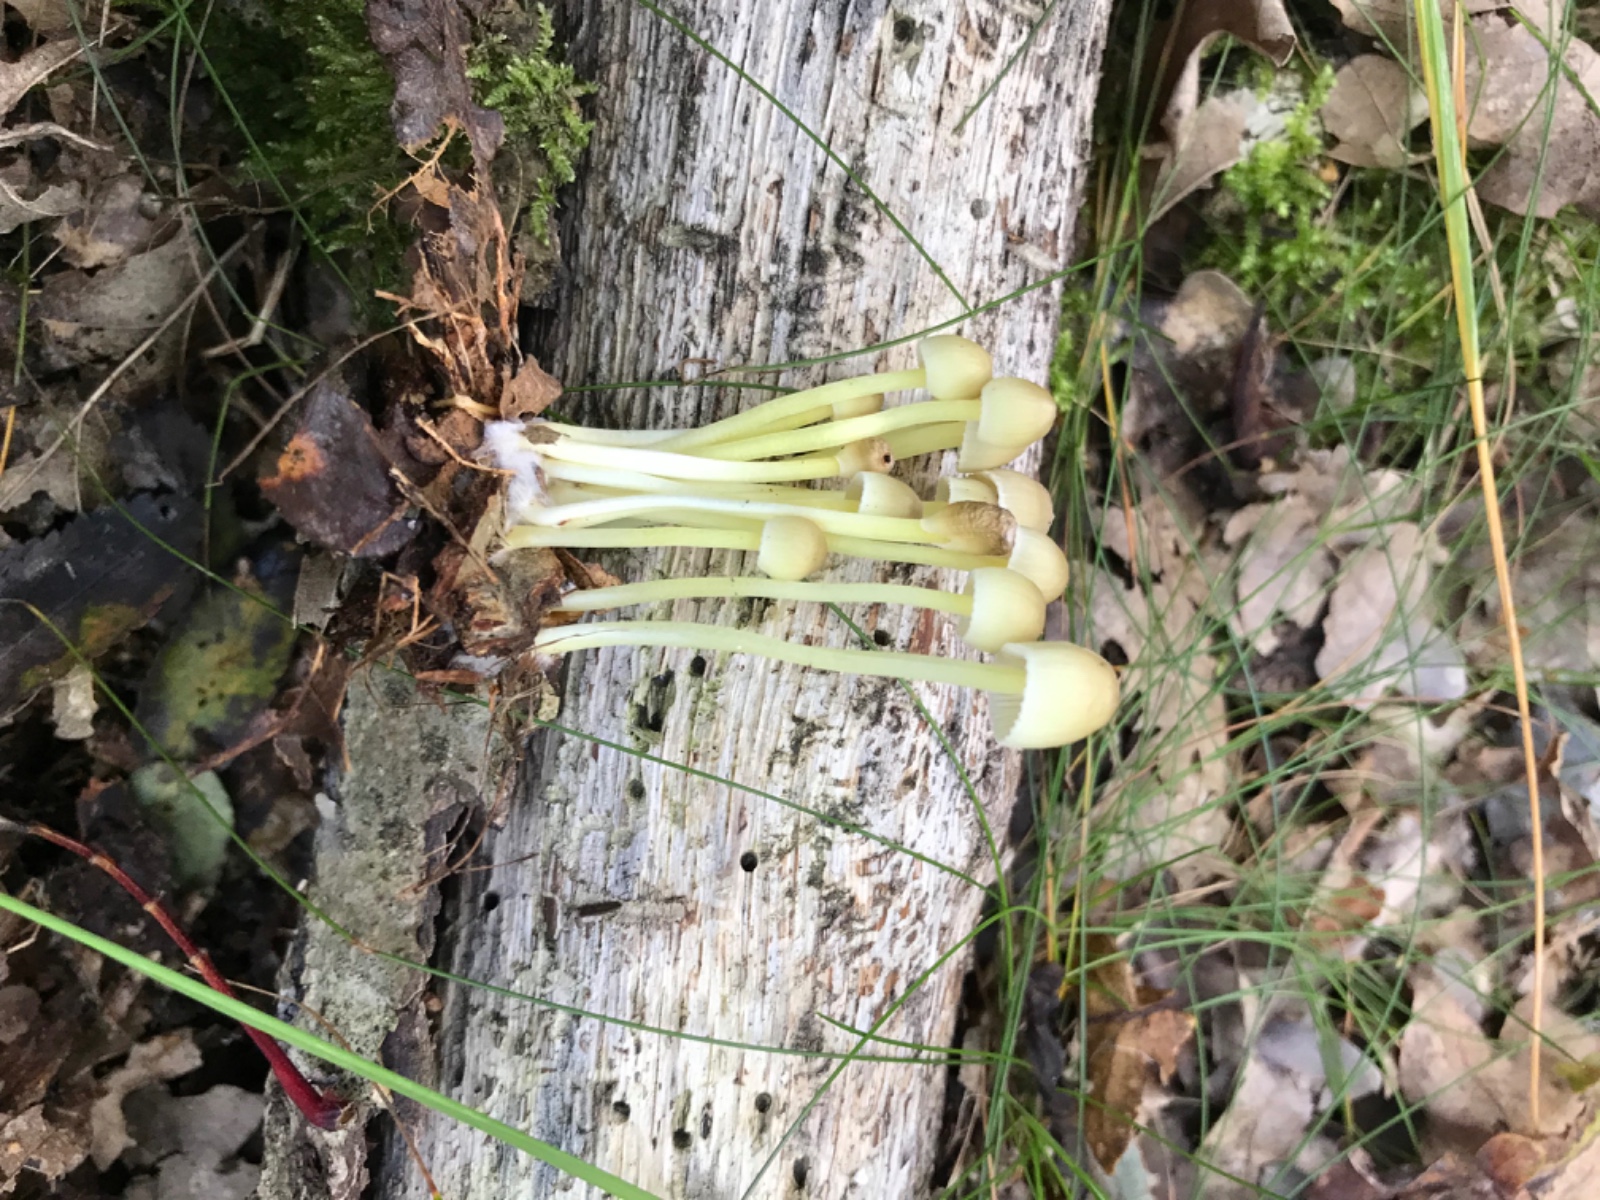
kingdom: Fungi
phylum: Basidiomycota
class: Agaricomycetes
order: Agaricales
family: Mycenaceae
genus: Mycena
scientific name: Mycena epipterygia
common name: gulstokket huesvamp
